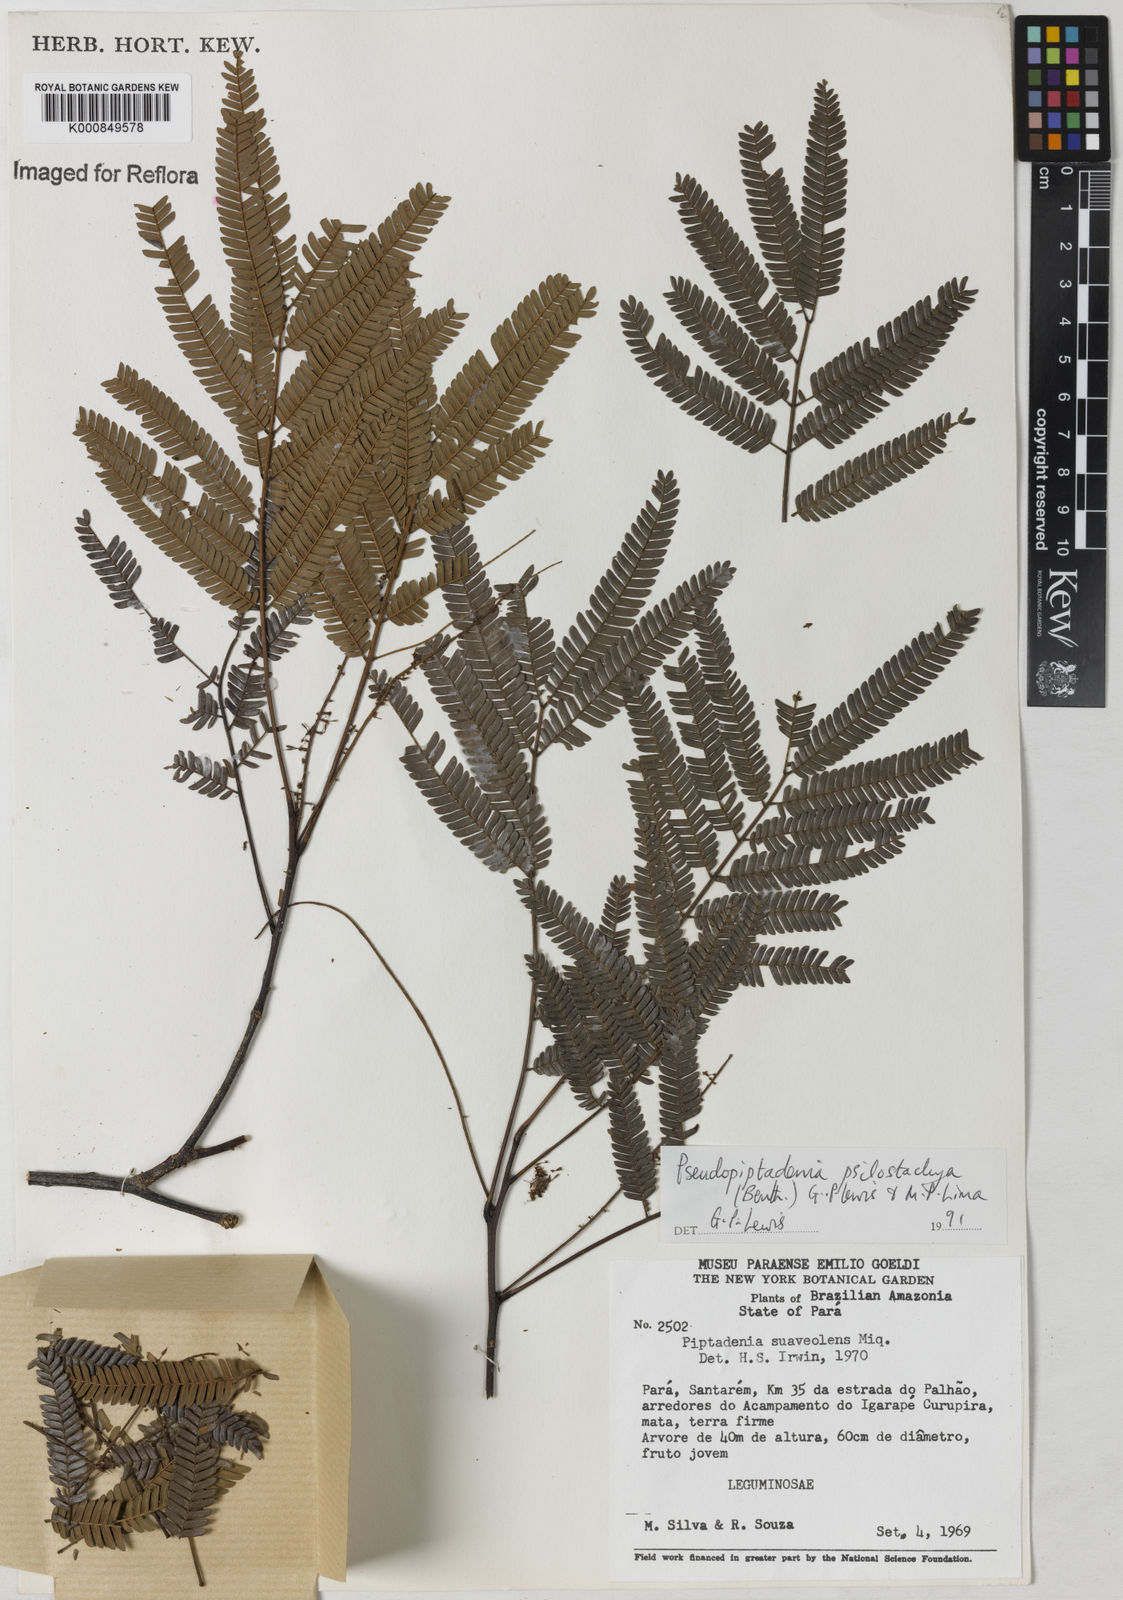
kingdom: Plantae
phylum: Tracheophyta
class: Magnoliopsida
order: Fabales
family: Fabaceae
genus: Pseudopiptadenia
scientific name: Pseudopiptadenia psilostachya
